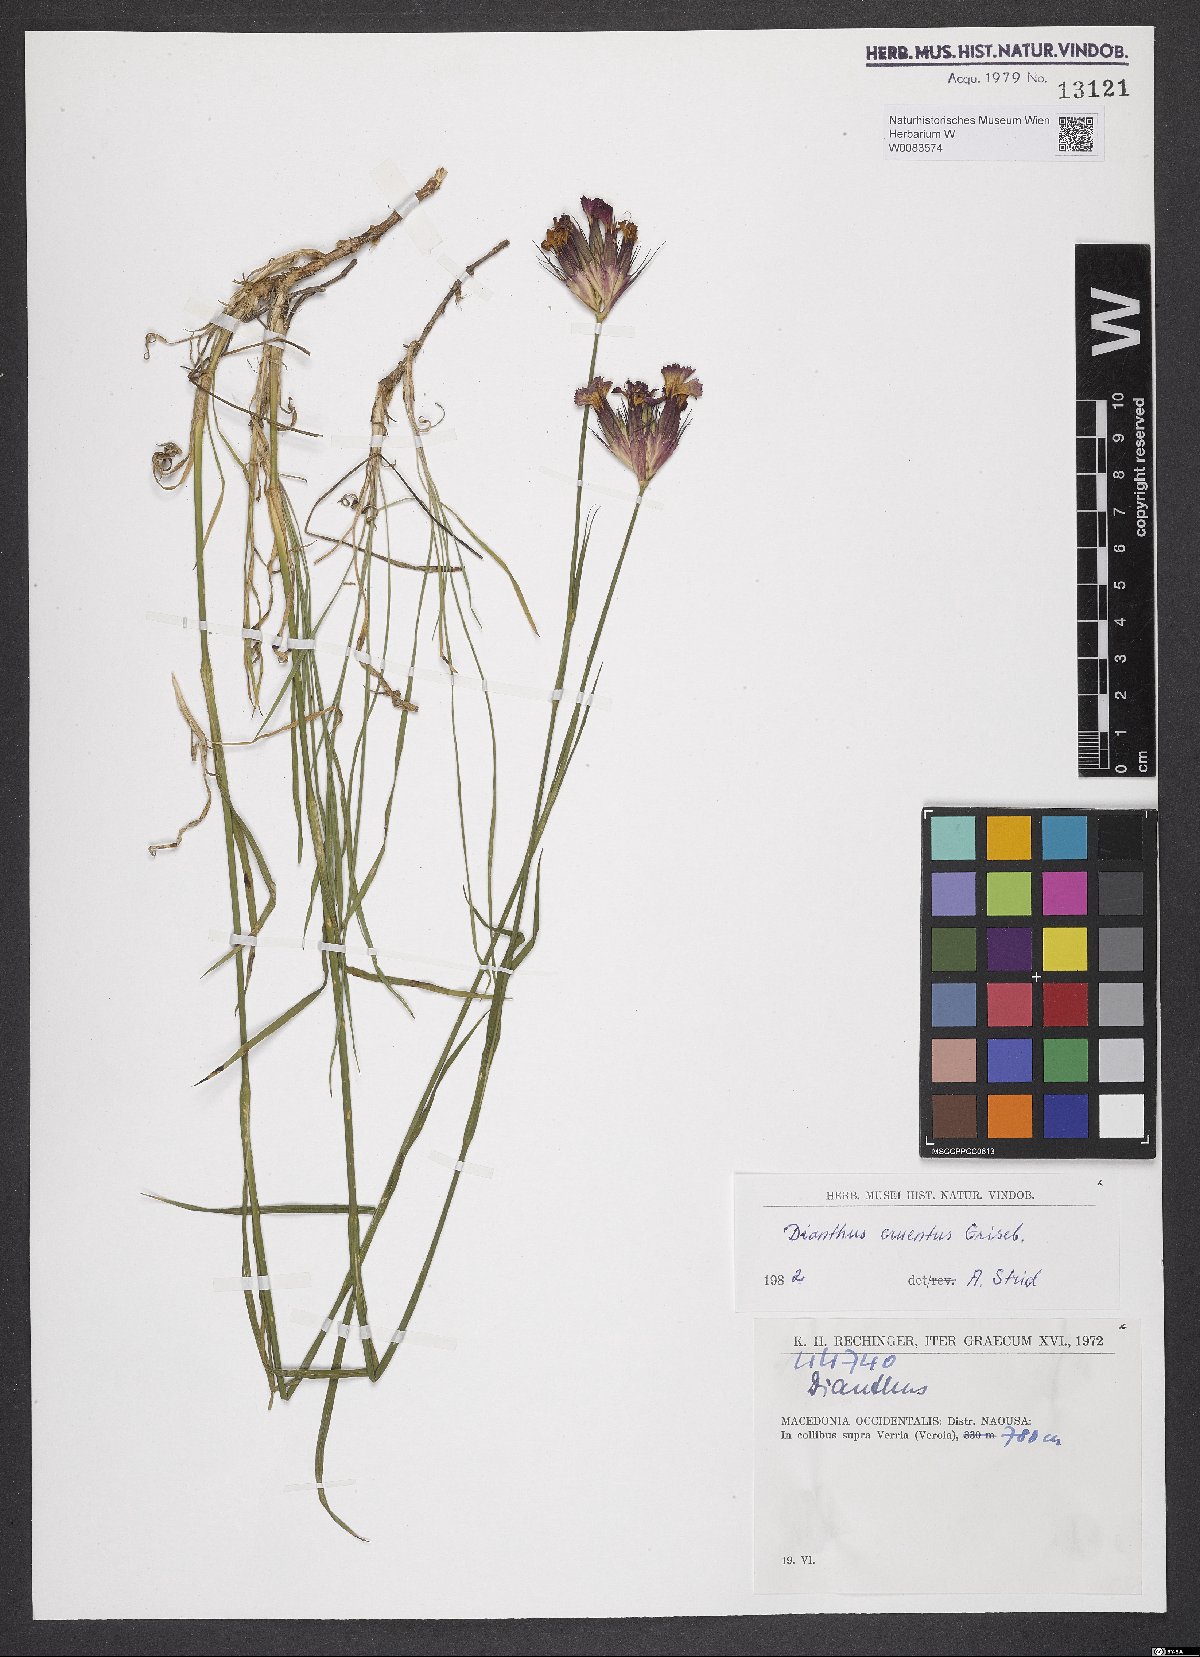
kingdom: Plantae
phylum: Tracheophyta
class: Magnoliopsida
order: Caryophyllales
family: Caryophyllaceae
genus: Dianthus
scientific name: Dianthus cruentus
